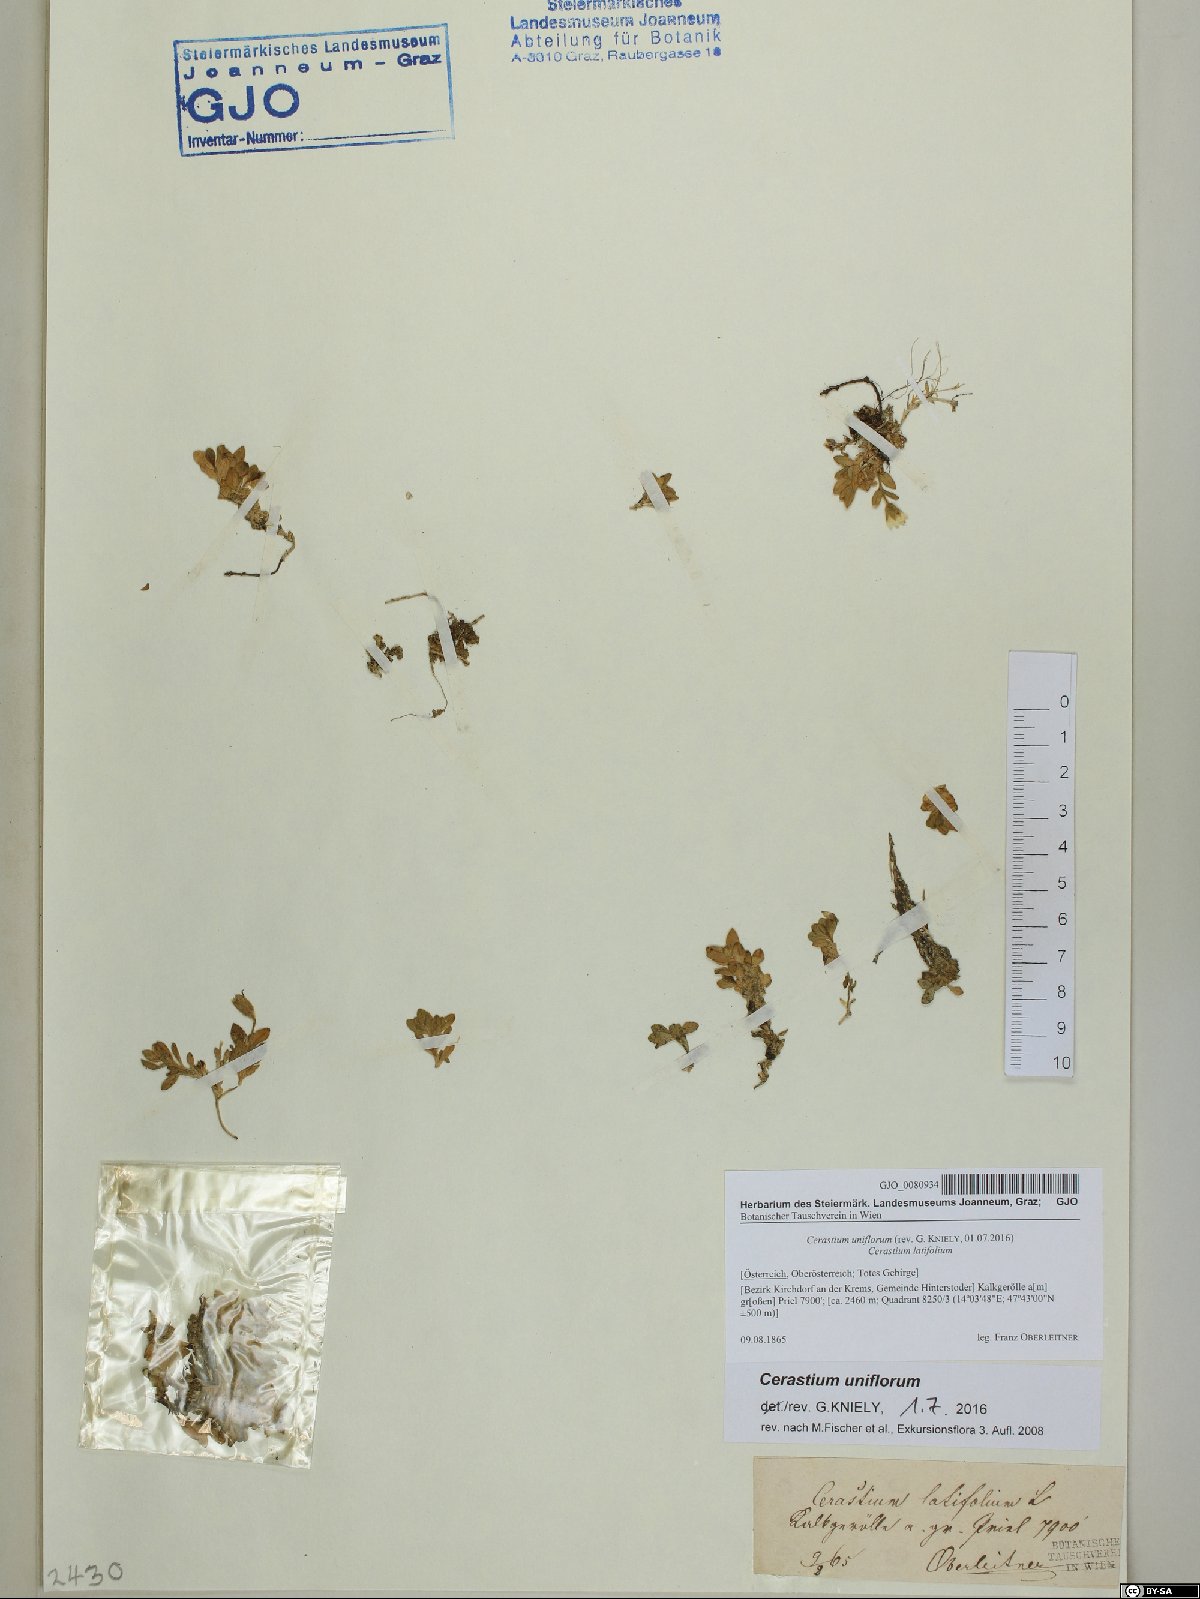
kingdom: Plantae
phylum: Tracheophyta
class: Magnoliopsida
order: Caryophyllales
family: Caryophyllaceae
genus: Cerastium
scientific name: Cerastium uniflorum
